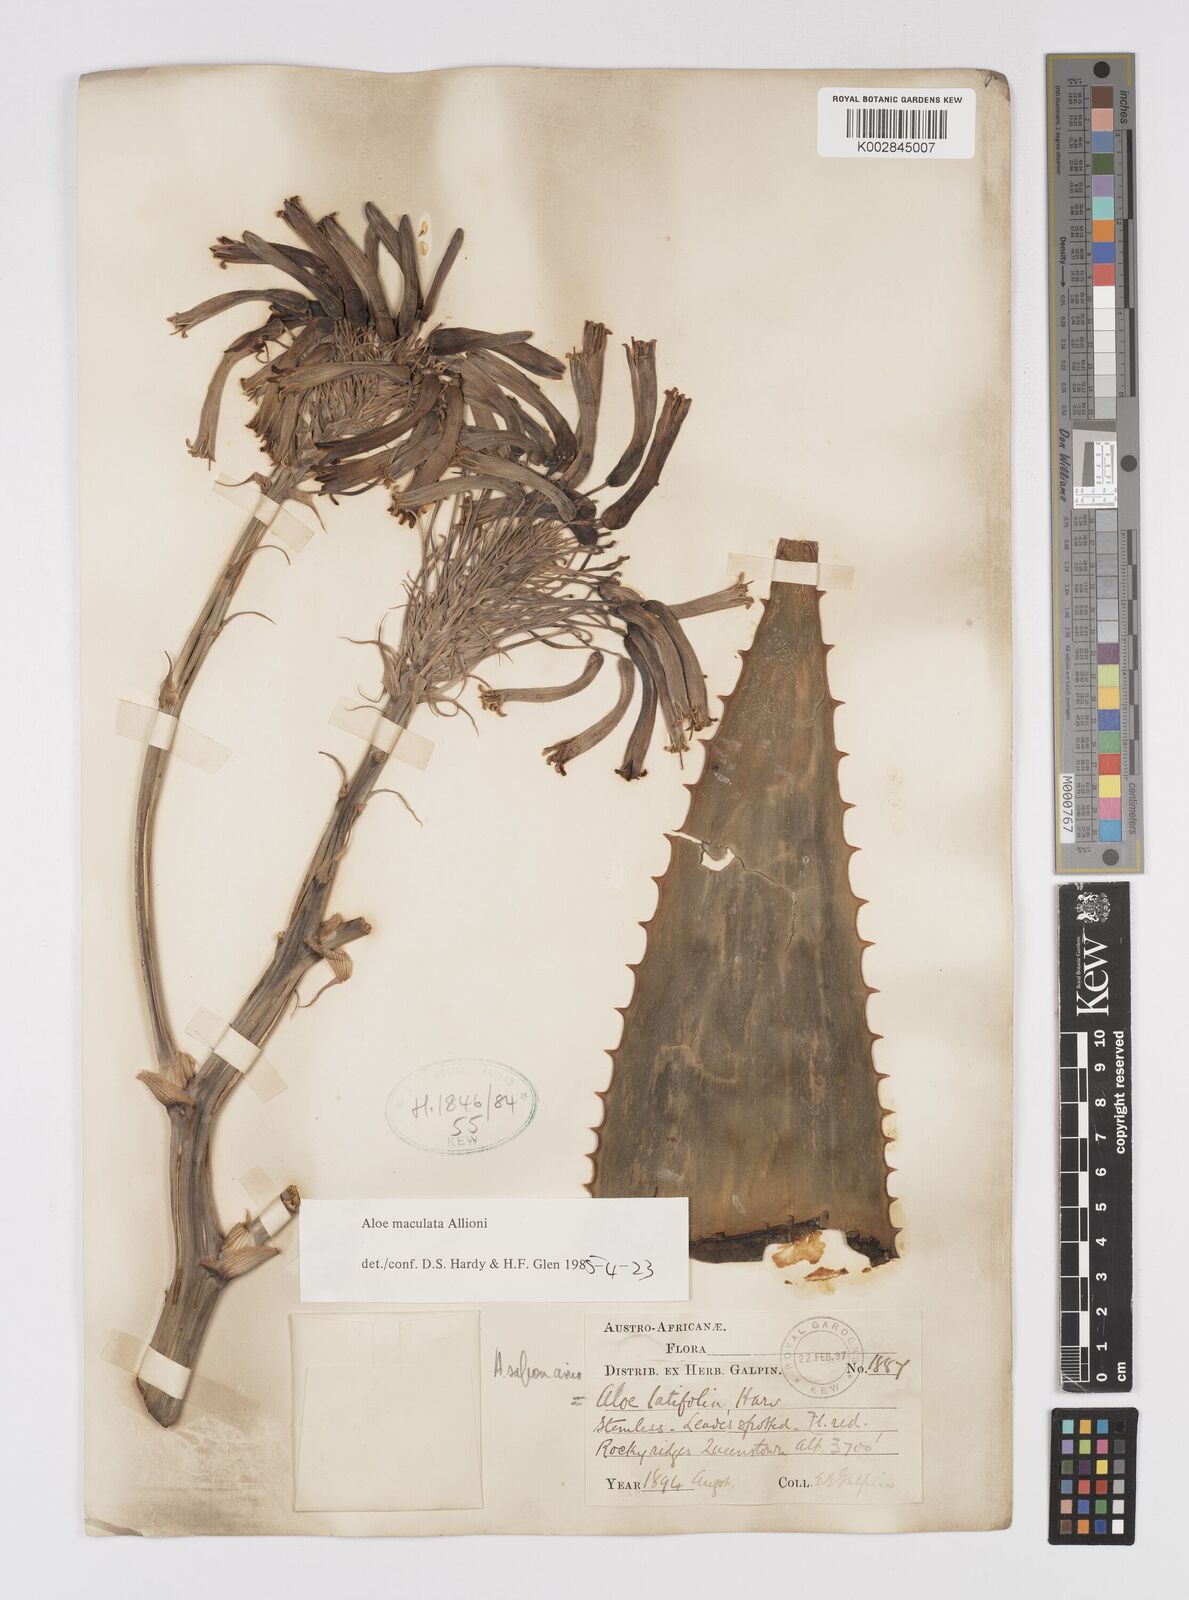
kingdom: Plantae
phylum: Tracheophyta
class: Liliopsida
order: Asparagales
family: Asphodelaceae
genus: Aloe
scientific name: Aloe microstigma
